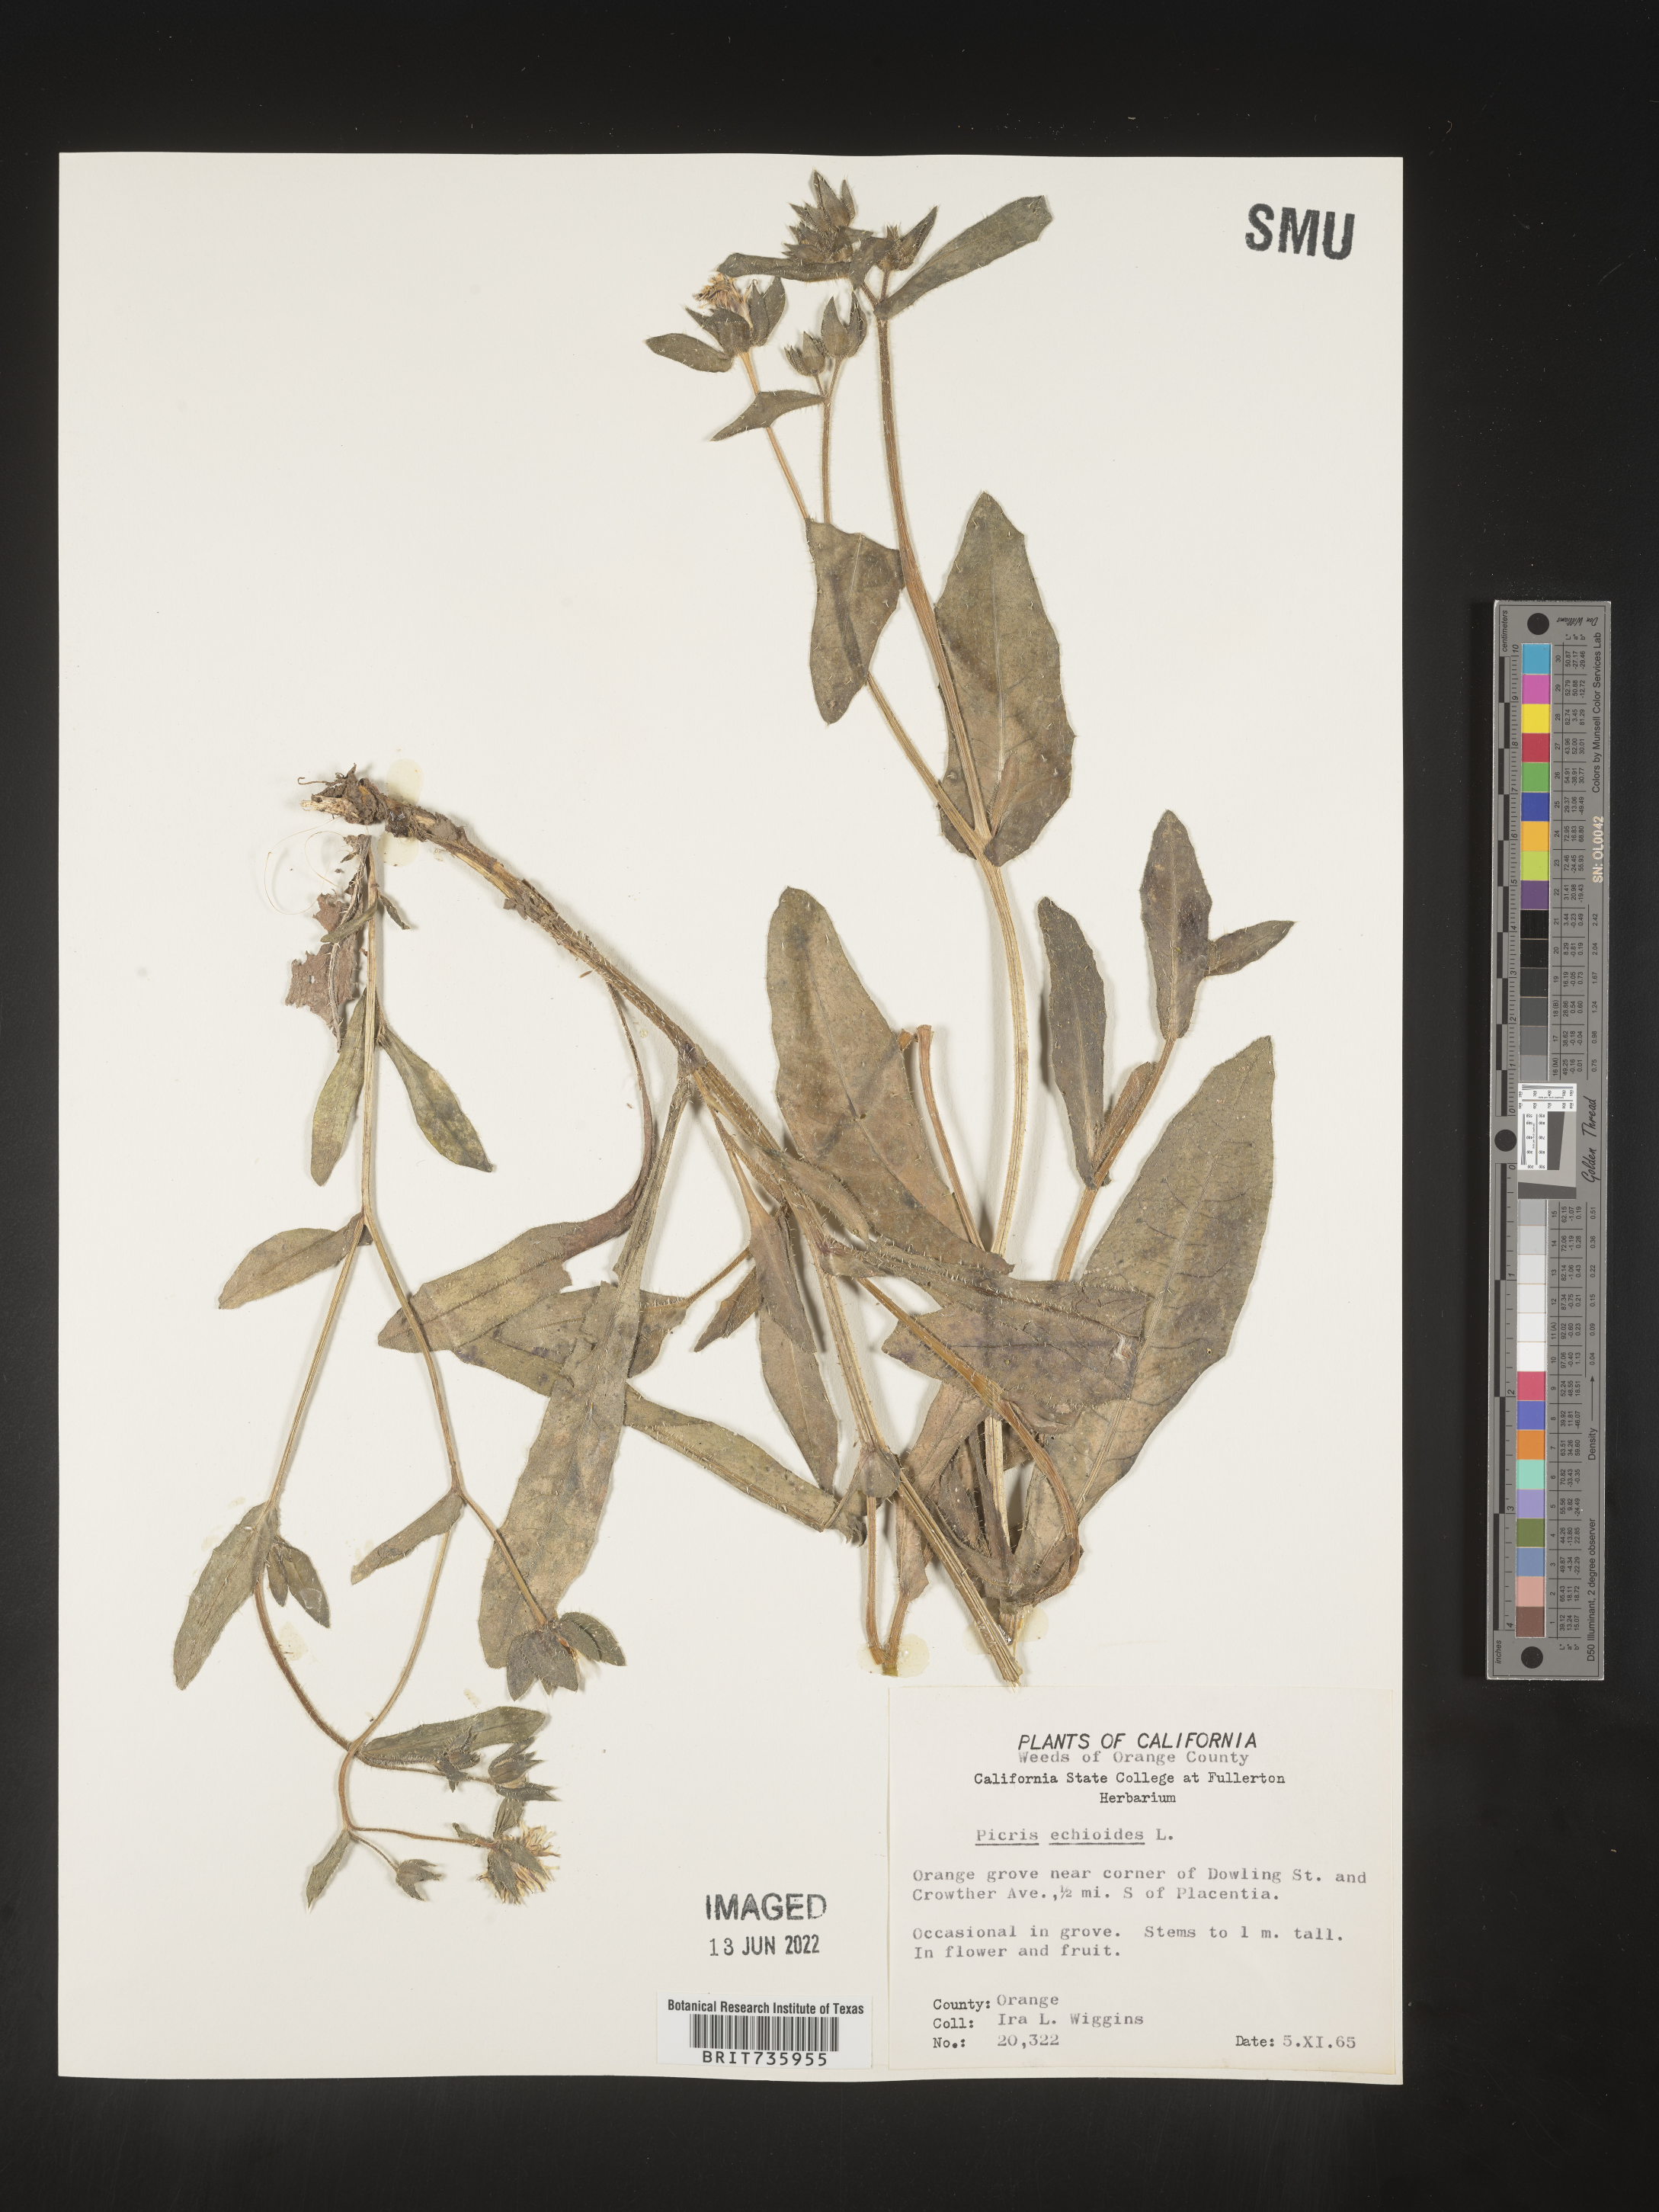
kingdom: Plantae
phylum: Tracheophyta
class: Magnoliopsida
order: Asterales
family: Asteraceae
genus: Picris
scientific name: Picris
